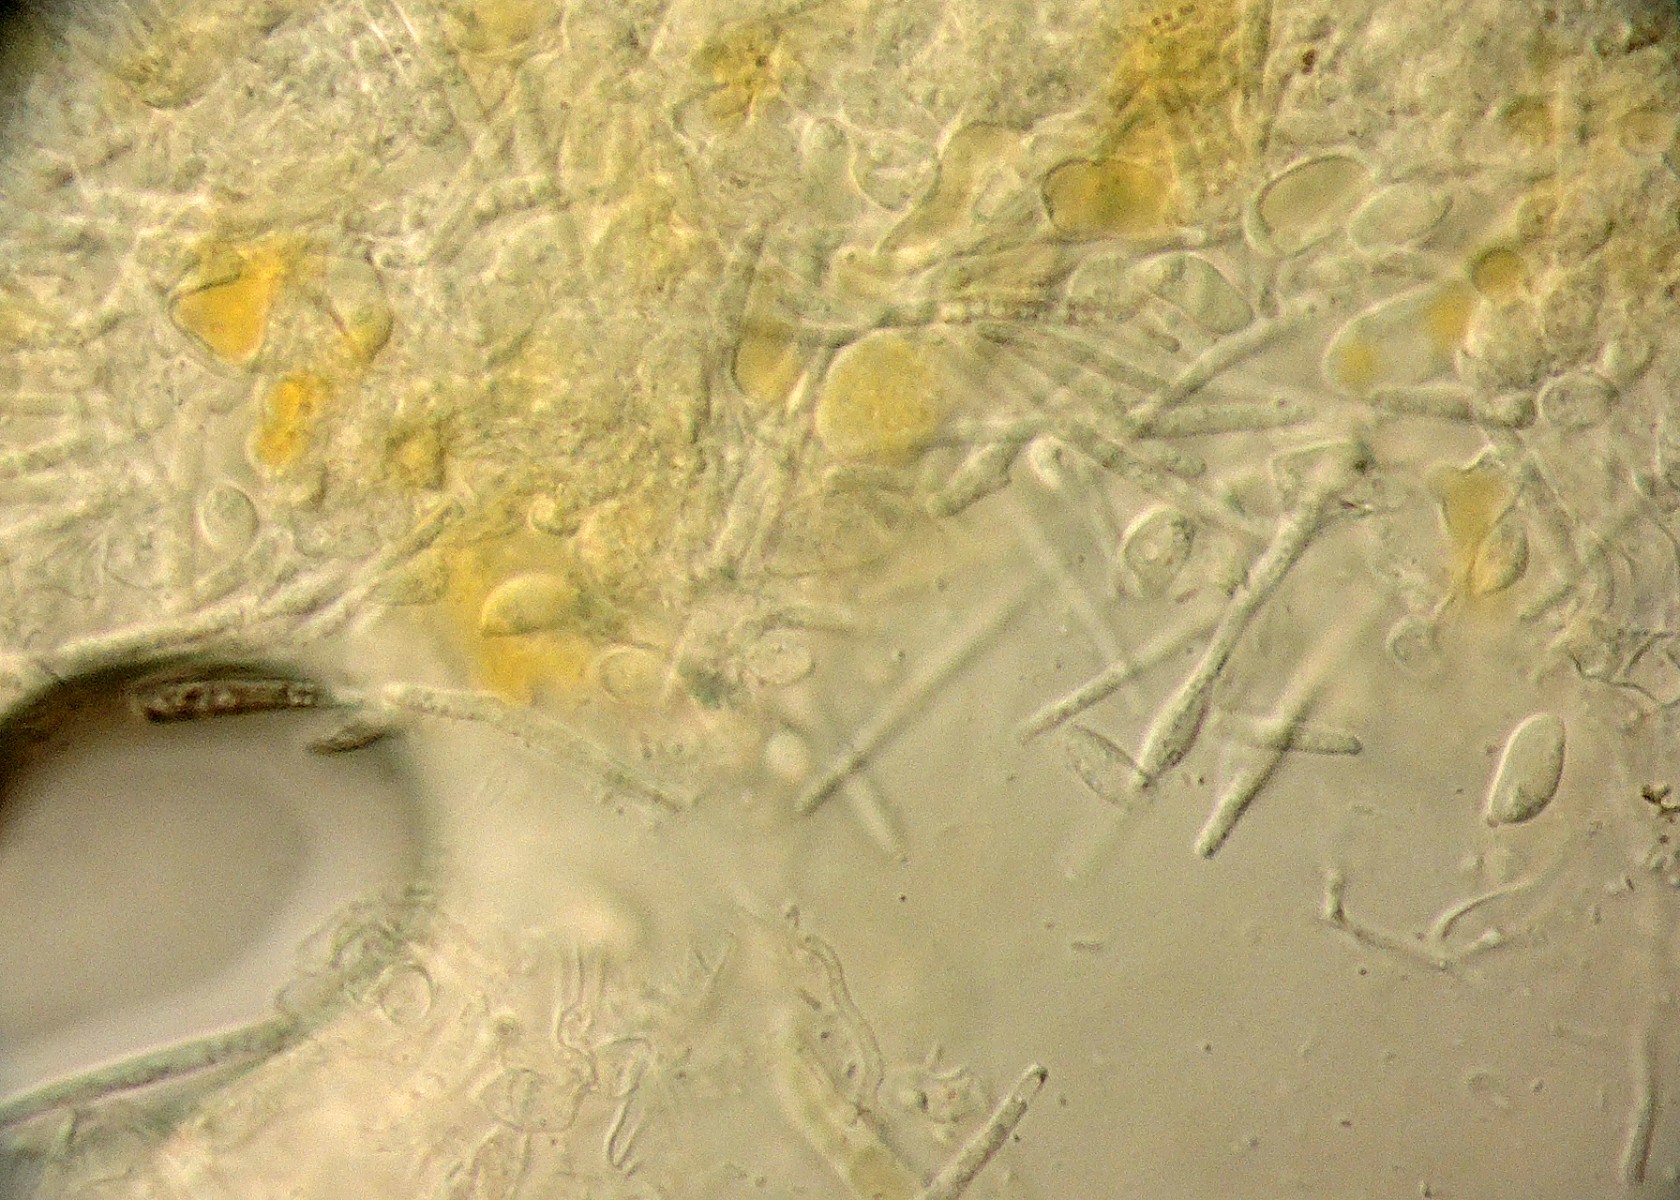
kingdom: Fungi
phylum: Basidiomycota
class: Agaricomycetes
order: Agaricales
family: Stephanosporaceae
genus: Athelidium
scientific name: Athelidium aurantiacum
